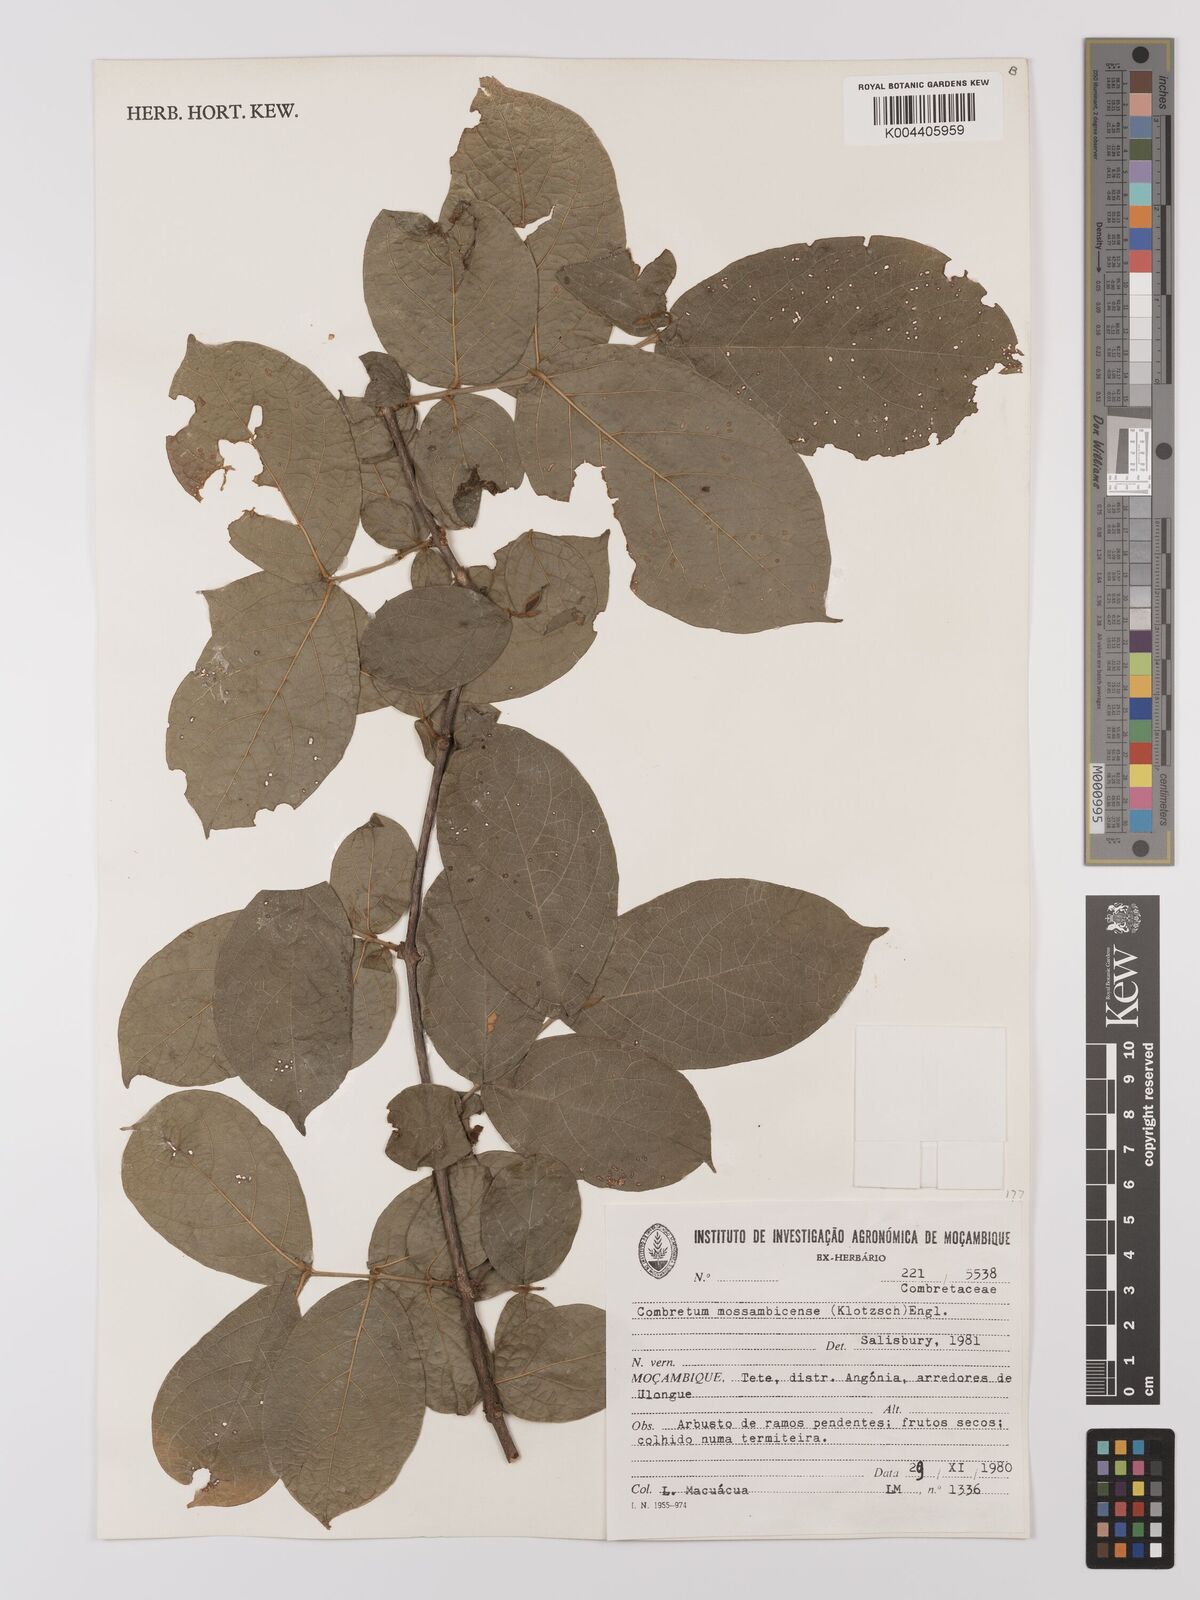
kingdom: Plantae
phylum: Tracheophyta
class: Magnoliopsida
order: Myrtales
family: Combretaceae
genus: Combretum
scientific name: Combretum mossambicense
